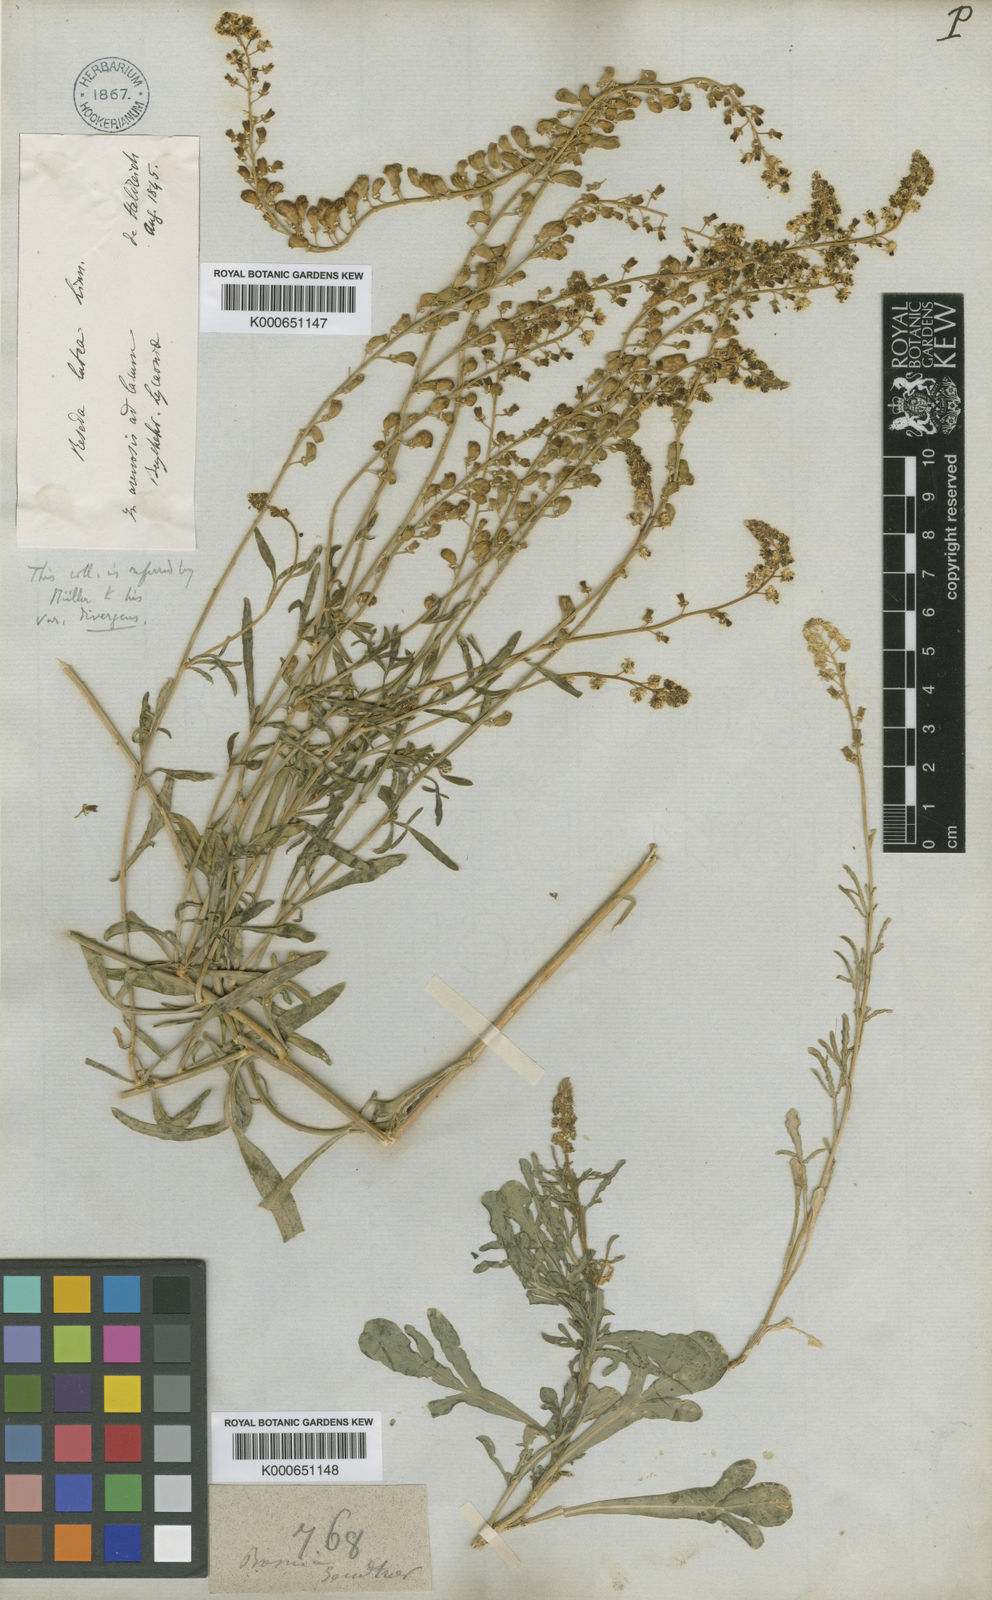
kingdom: Plantae
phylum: Tracheophyta
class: Magnoliopsida
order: Brassicales
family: Resedaceae
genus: Reseda
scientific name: Reseda lutea
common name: Wild mignonette
